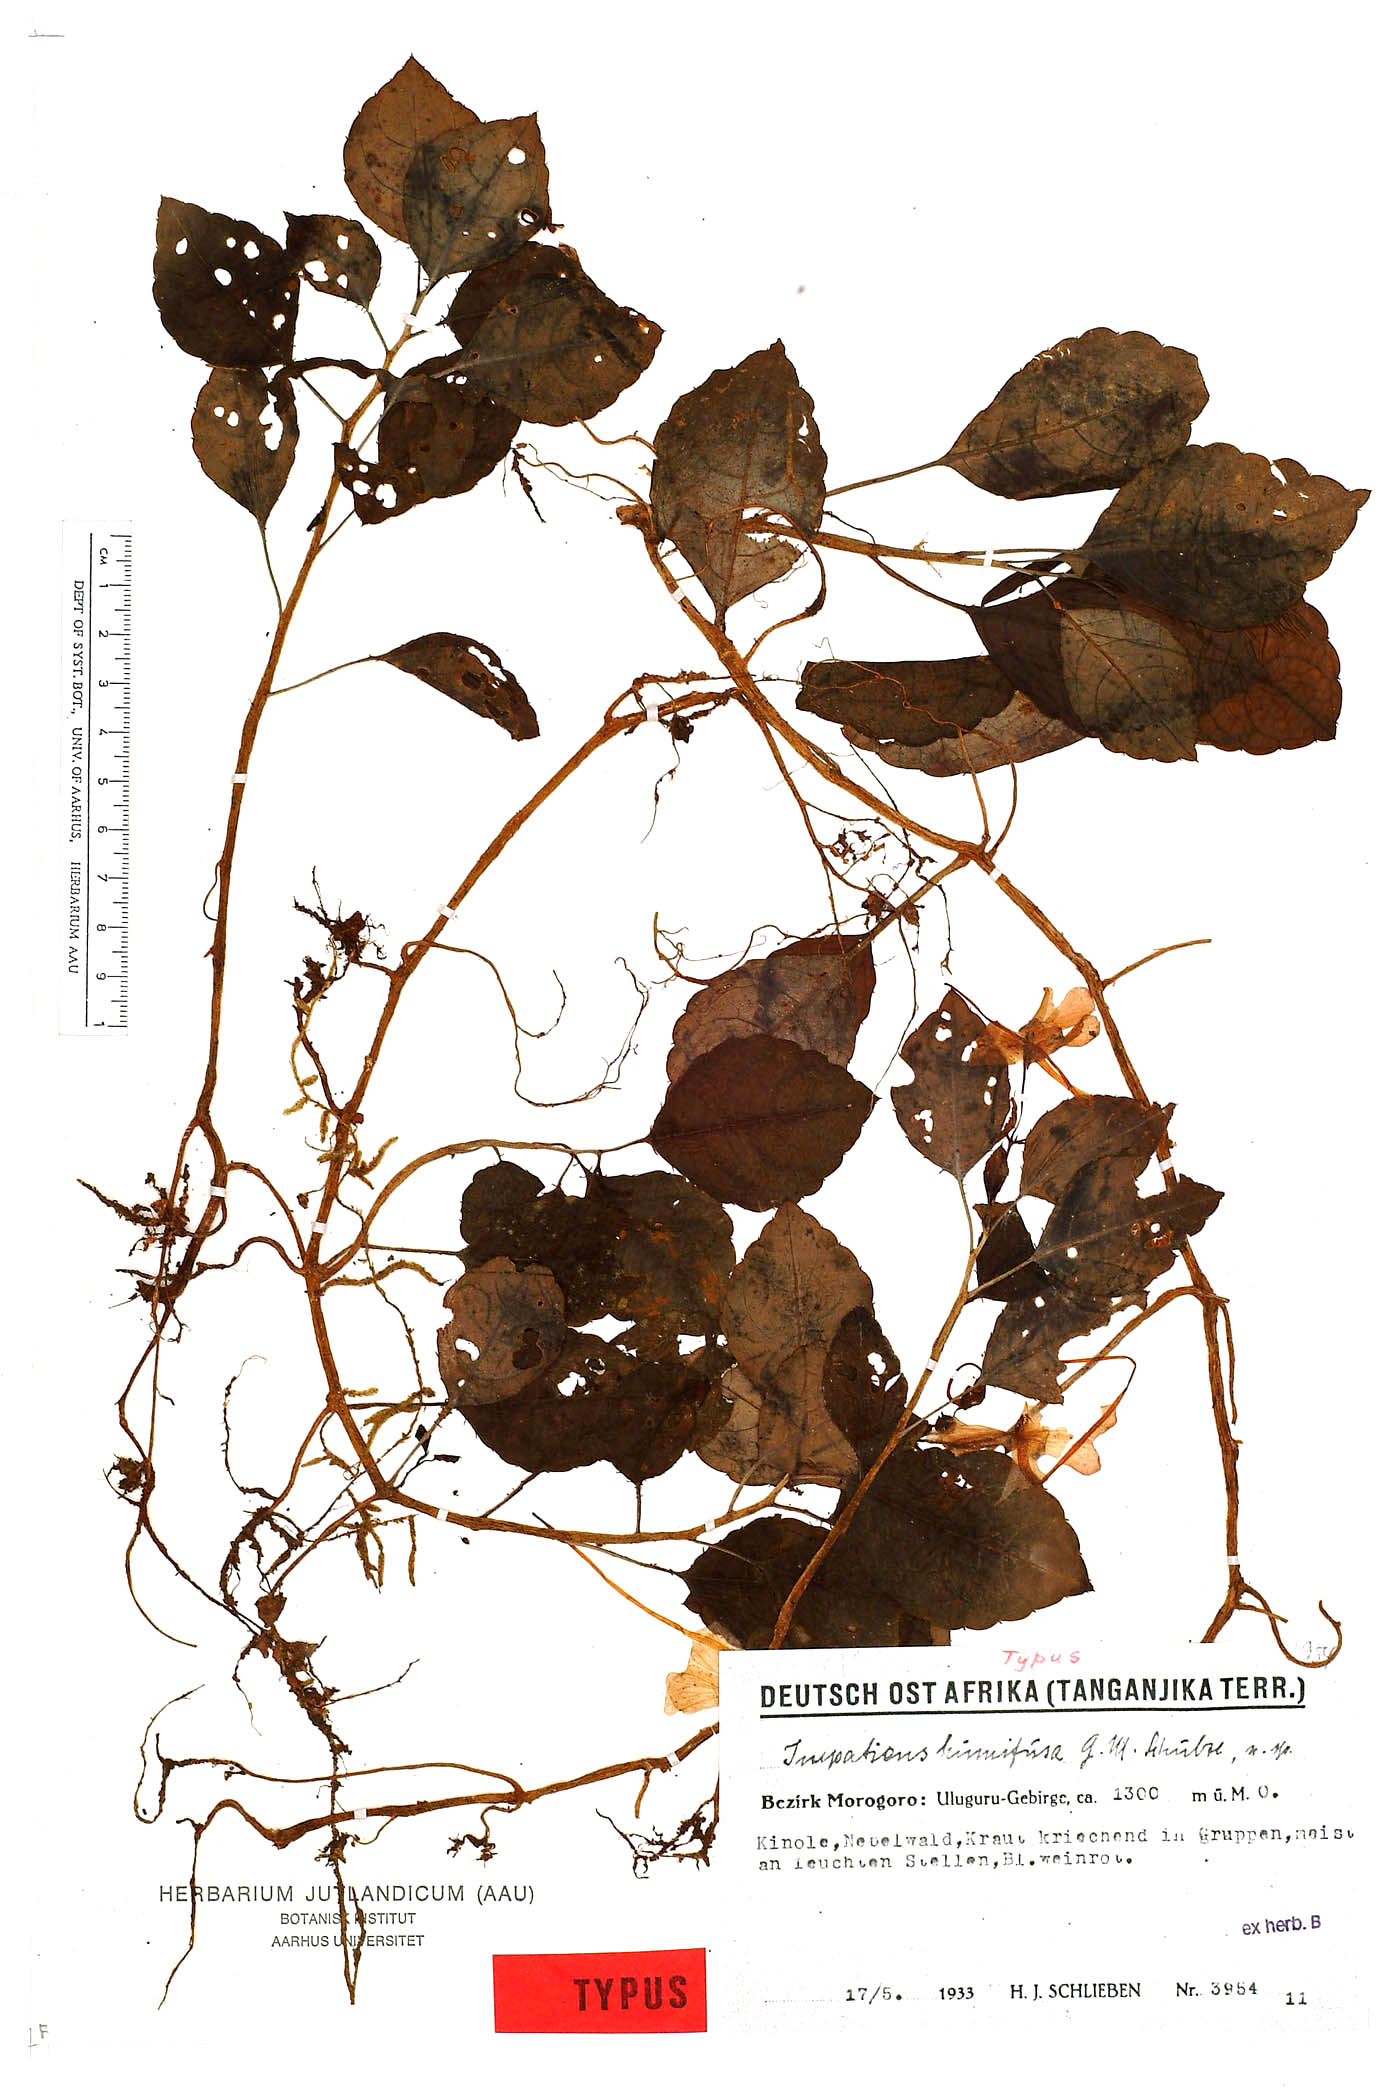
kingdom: Plantae
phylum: Tracheophyta
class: Magnoliopsida
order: Ericales
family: Balsaminaceae
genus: Impatiens
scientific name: Impatiens humifusa
